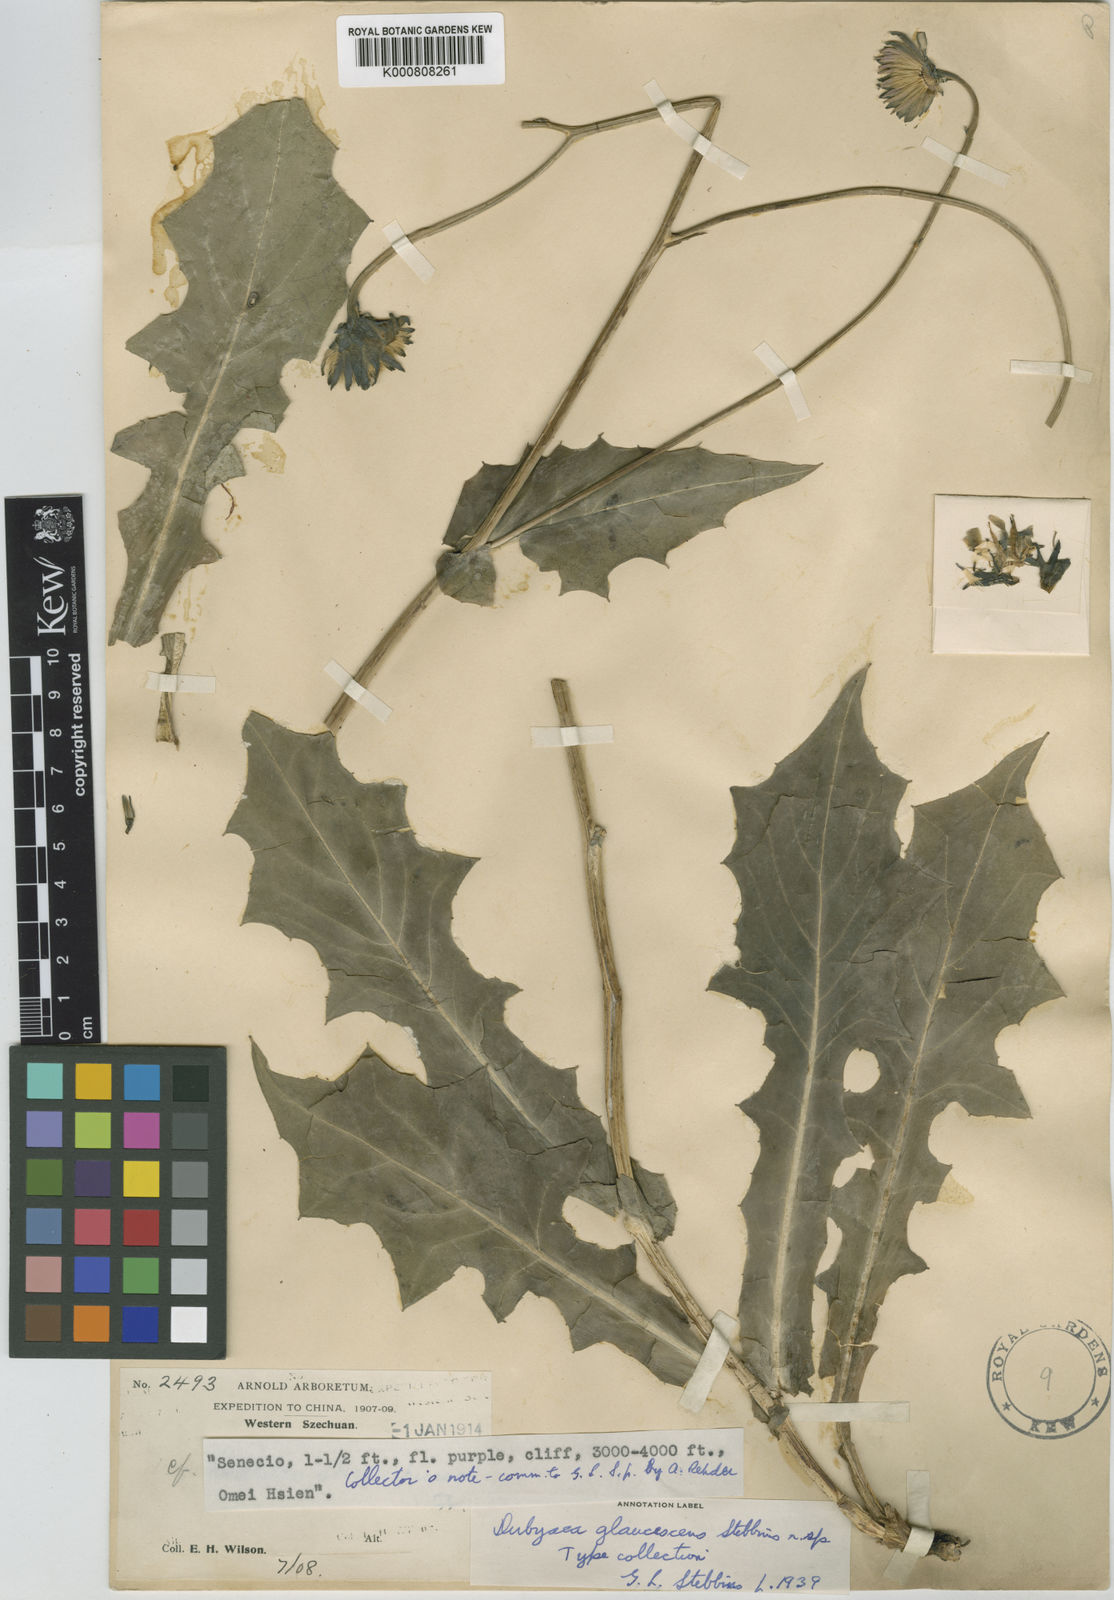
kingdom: Plantae
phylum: Tracheophyta
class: Magnoliopsida
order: Asterales
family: Asteraceae
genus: Faberia
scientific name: Faberia glaucescens
